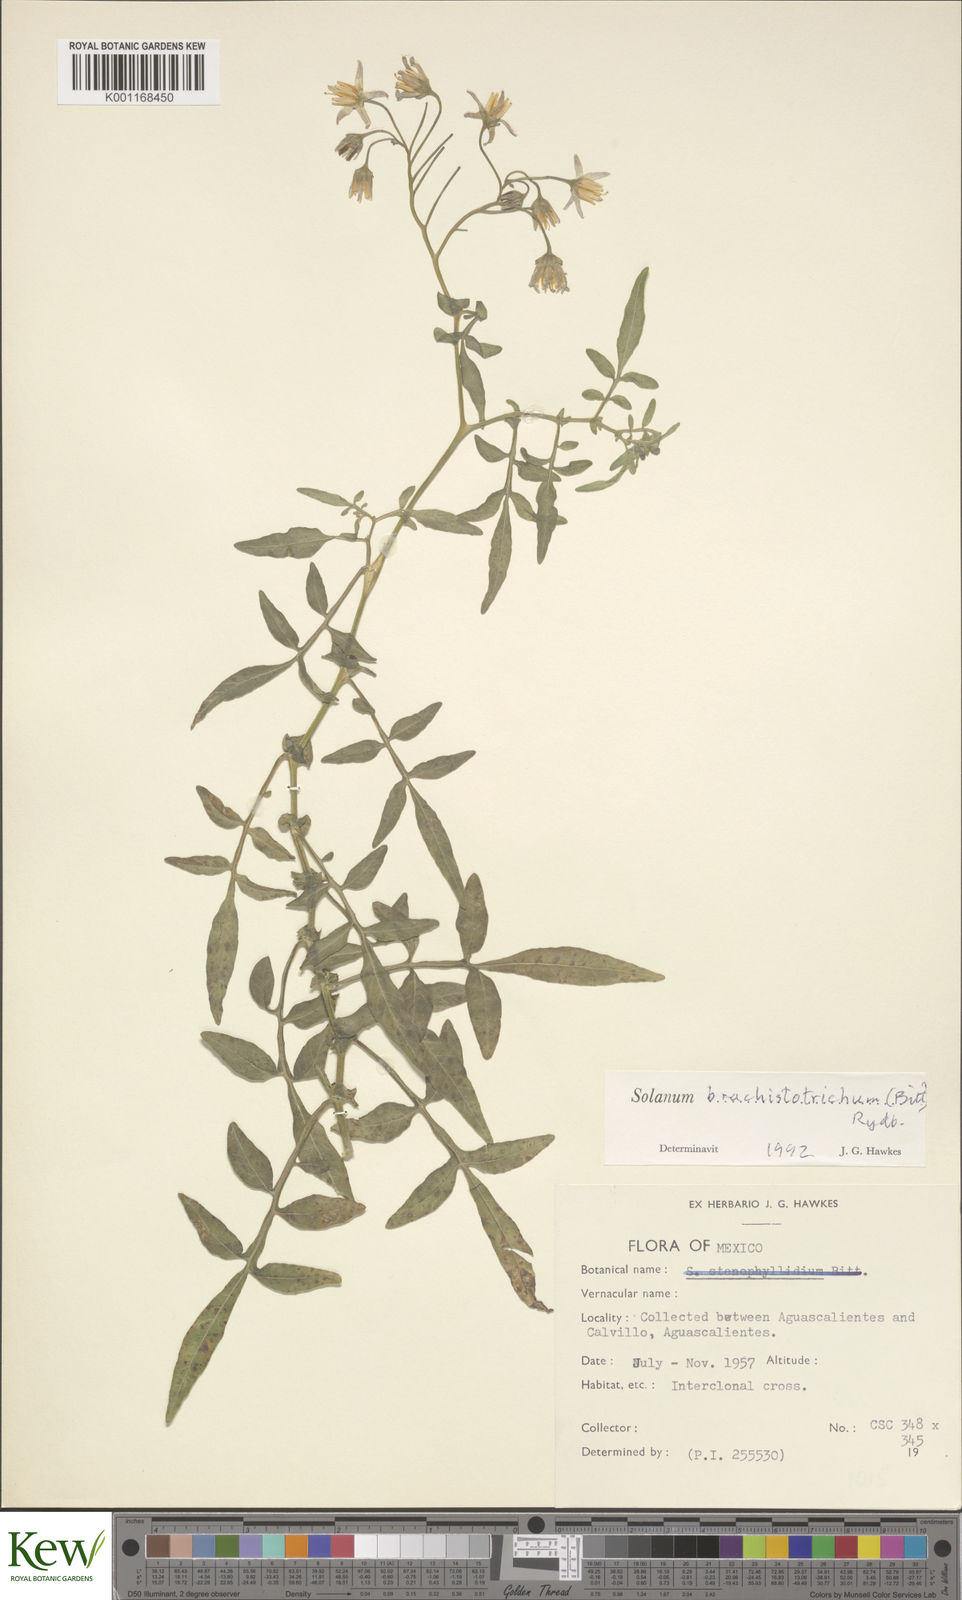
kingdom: Plantae
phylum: Tracheophyta
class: Magnoliopsida
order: Solanales
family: Solanaceae
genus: Solanum
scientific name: Solanum
